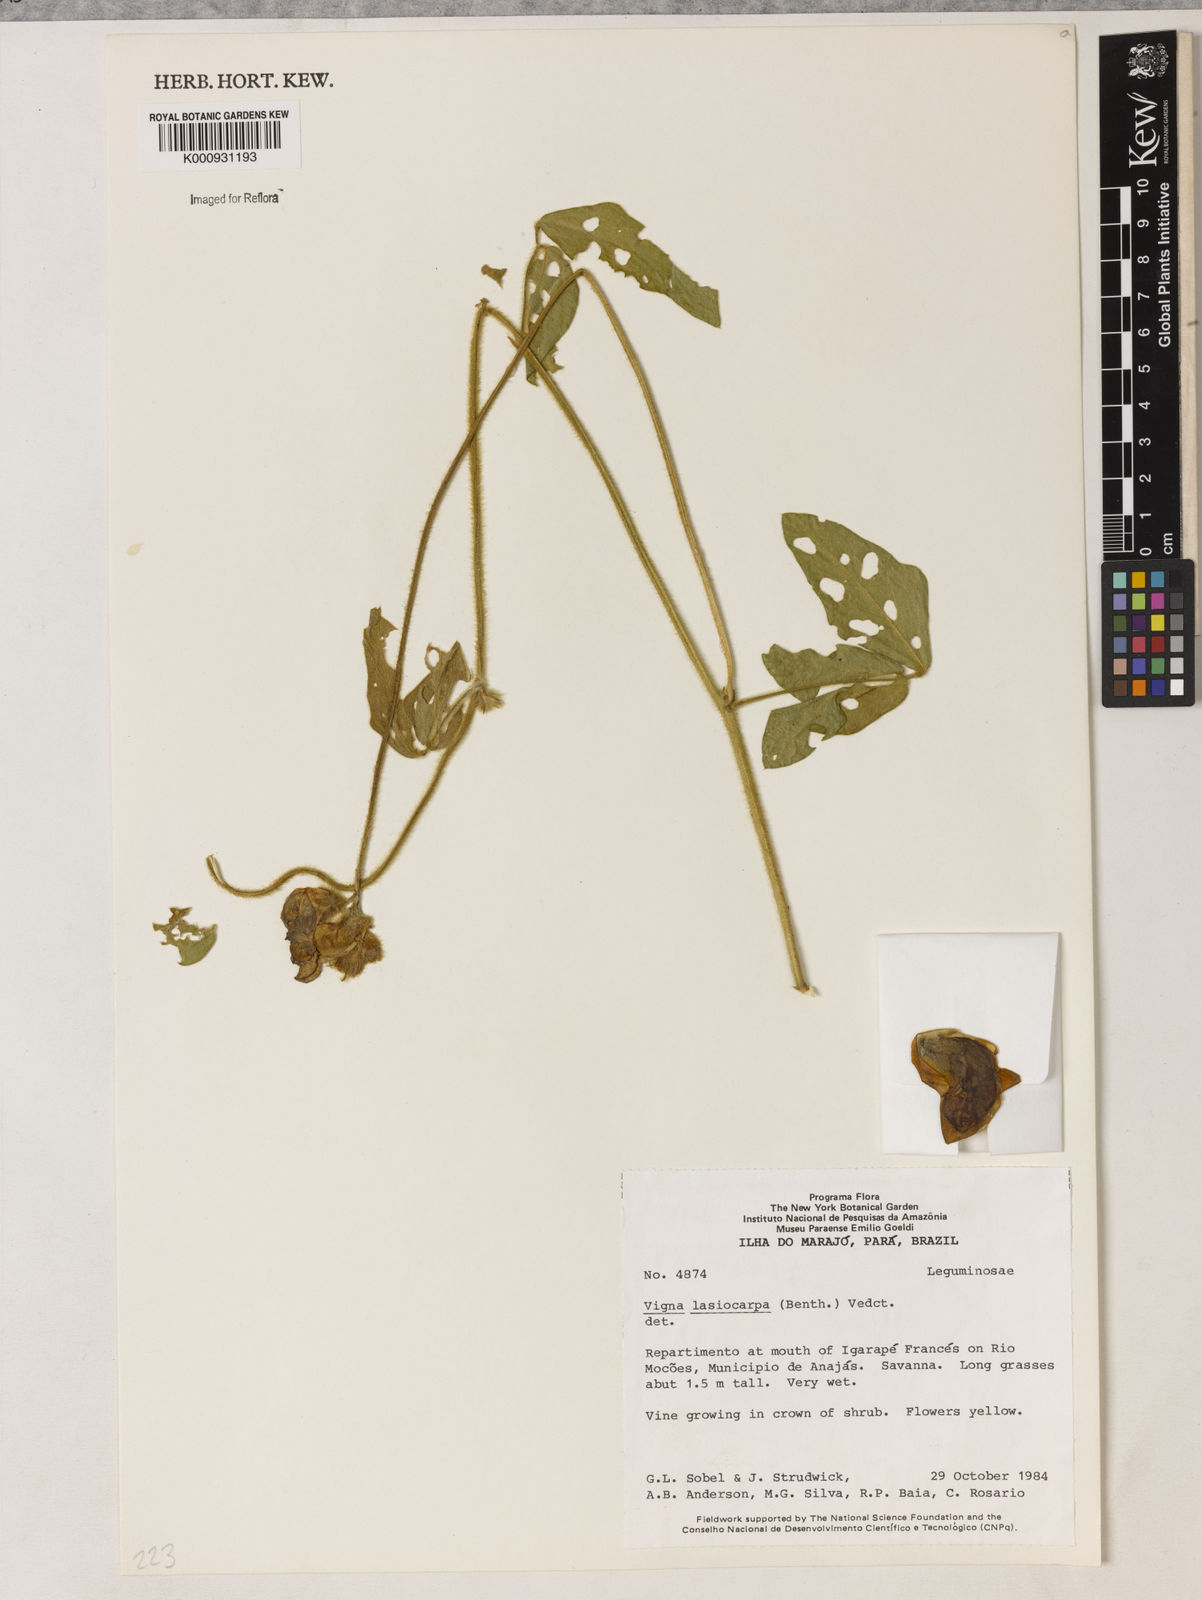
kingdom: Plantae
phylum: Tracheophyta
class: Magnoliopsida
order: Fabales
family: Fabaceae
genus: Vigna
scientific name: Vigna lasiocarpa
